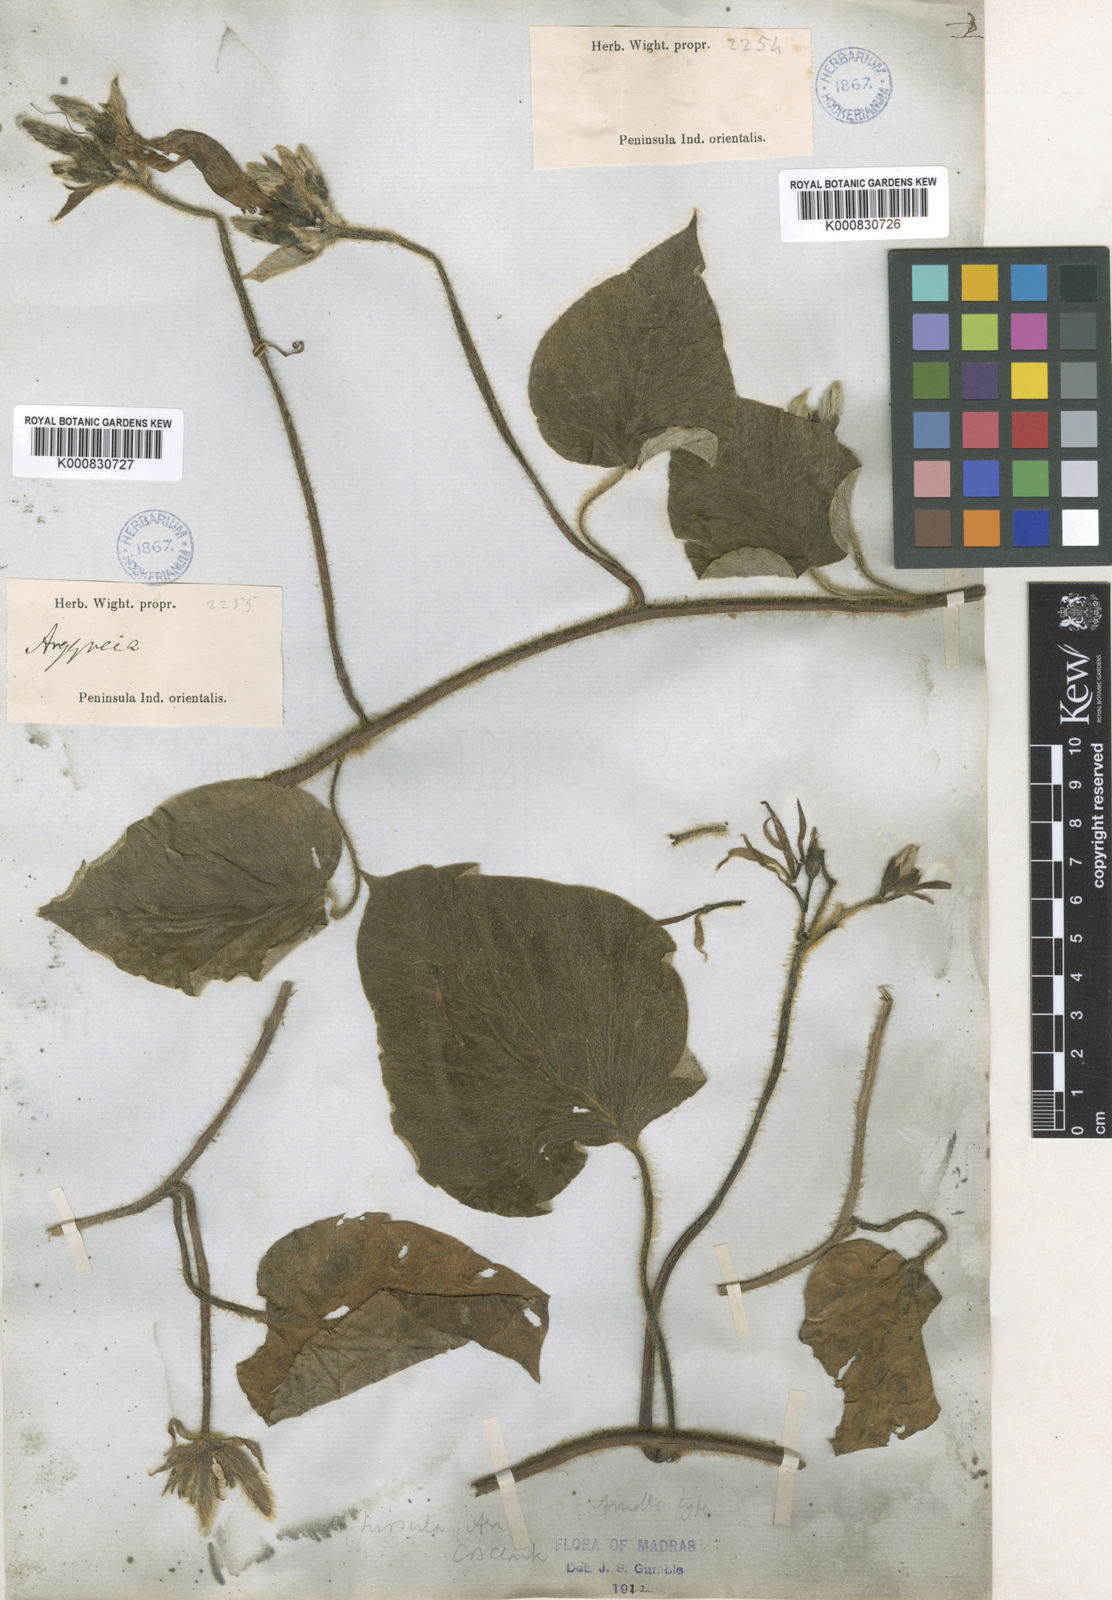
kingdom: Plantae
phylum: Tracheophyta
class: Magnoliopsida
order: Solanales
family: Convolvulaceae
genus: Argyreia
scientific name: Argyreia hirsuta
